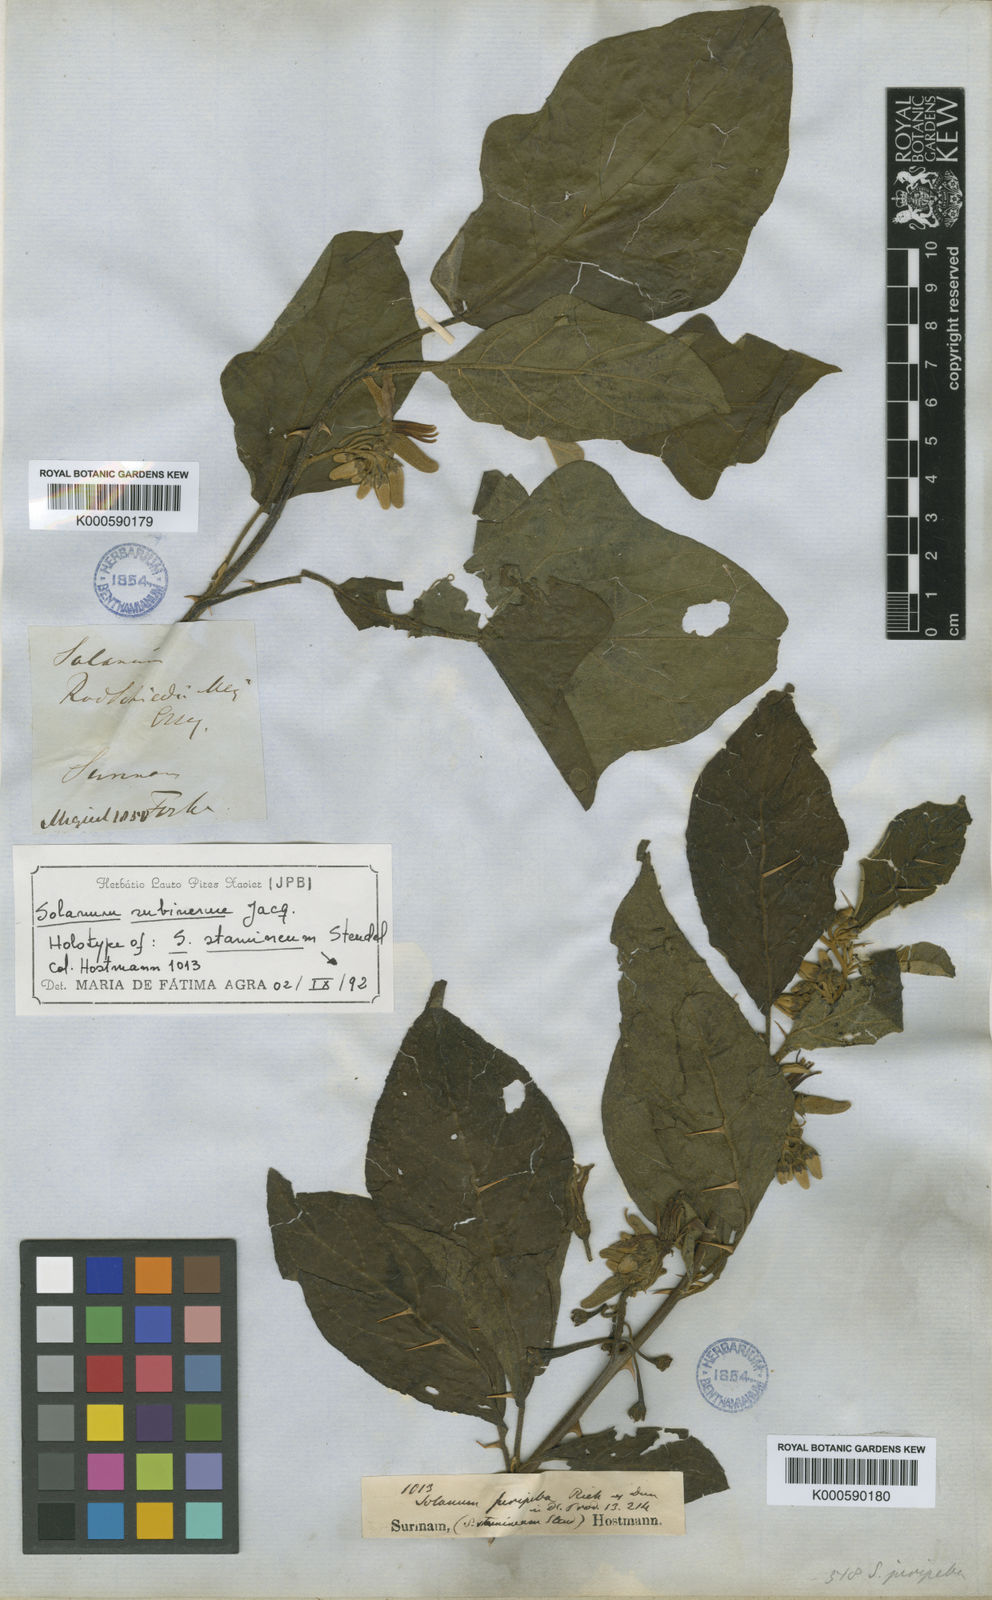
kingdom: Plantae
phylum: Tracheophyta
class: Magnoliopsida
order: Solanales
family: Solanaceae
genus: Solanum
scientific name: Solanum subinerme
